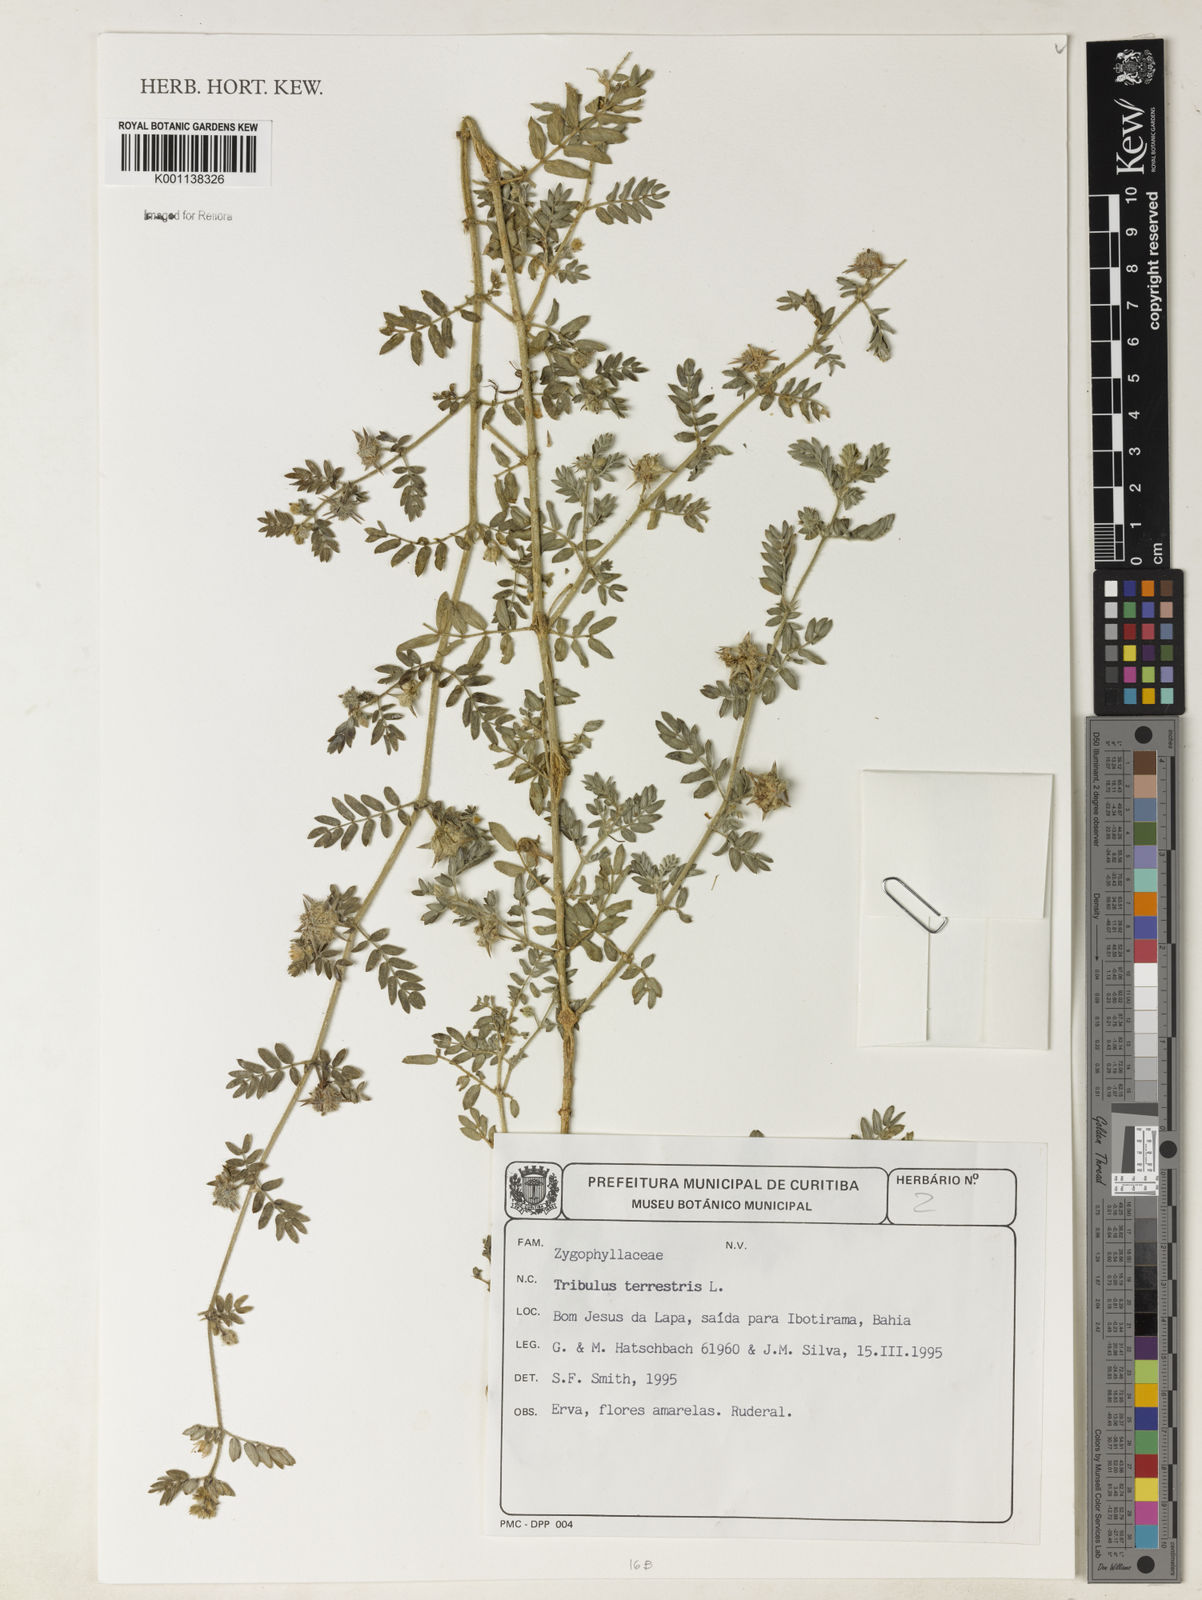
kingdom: Plantae
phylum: Tracheophyta
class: Magnoliopsida
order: Zygophyllales
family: Zygophyllaceae
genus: Tribulus
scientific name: Tribulus
